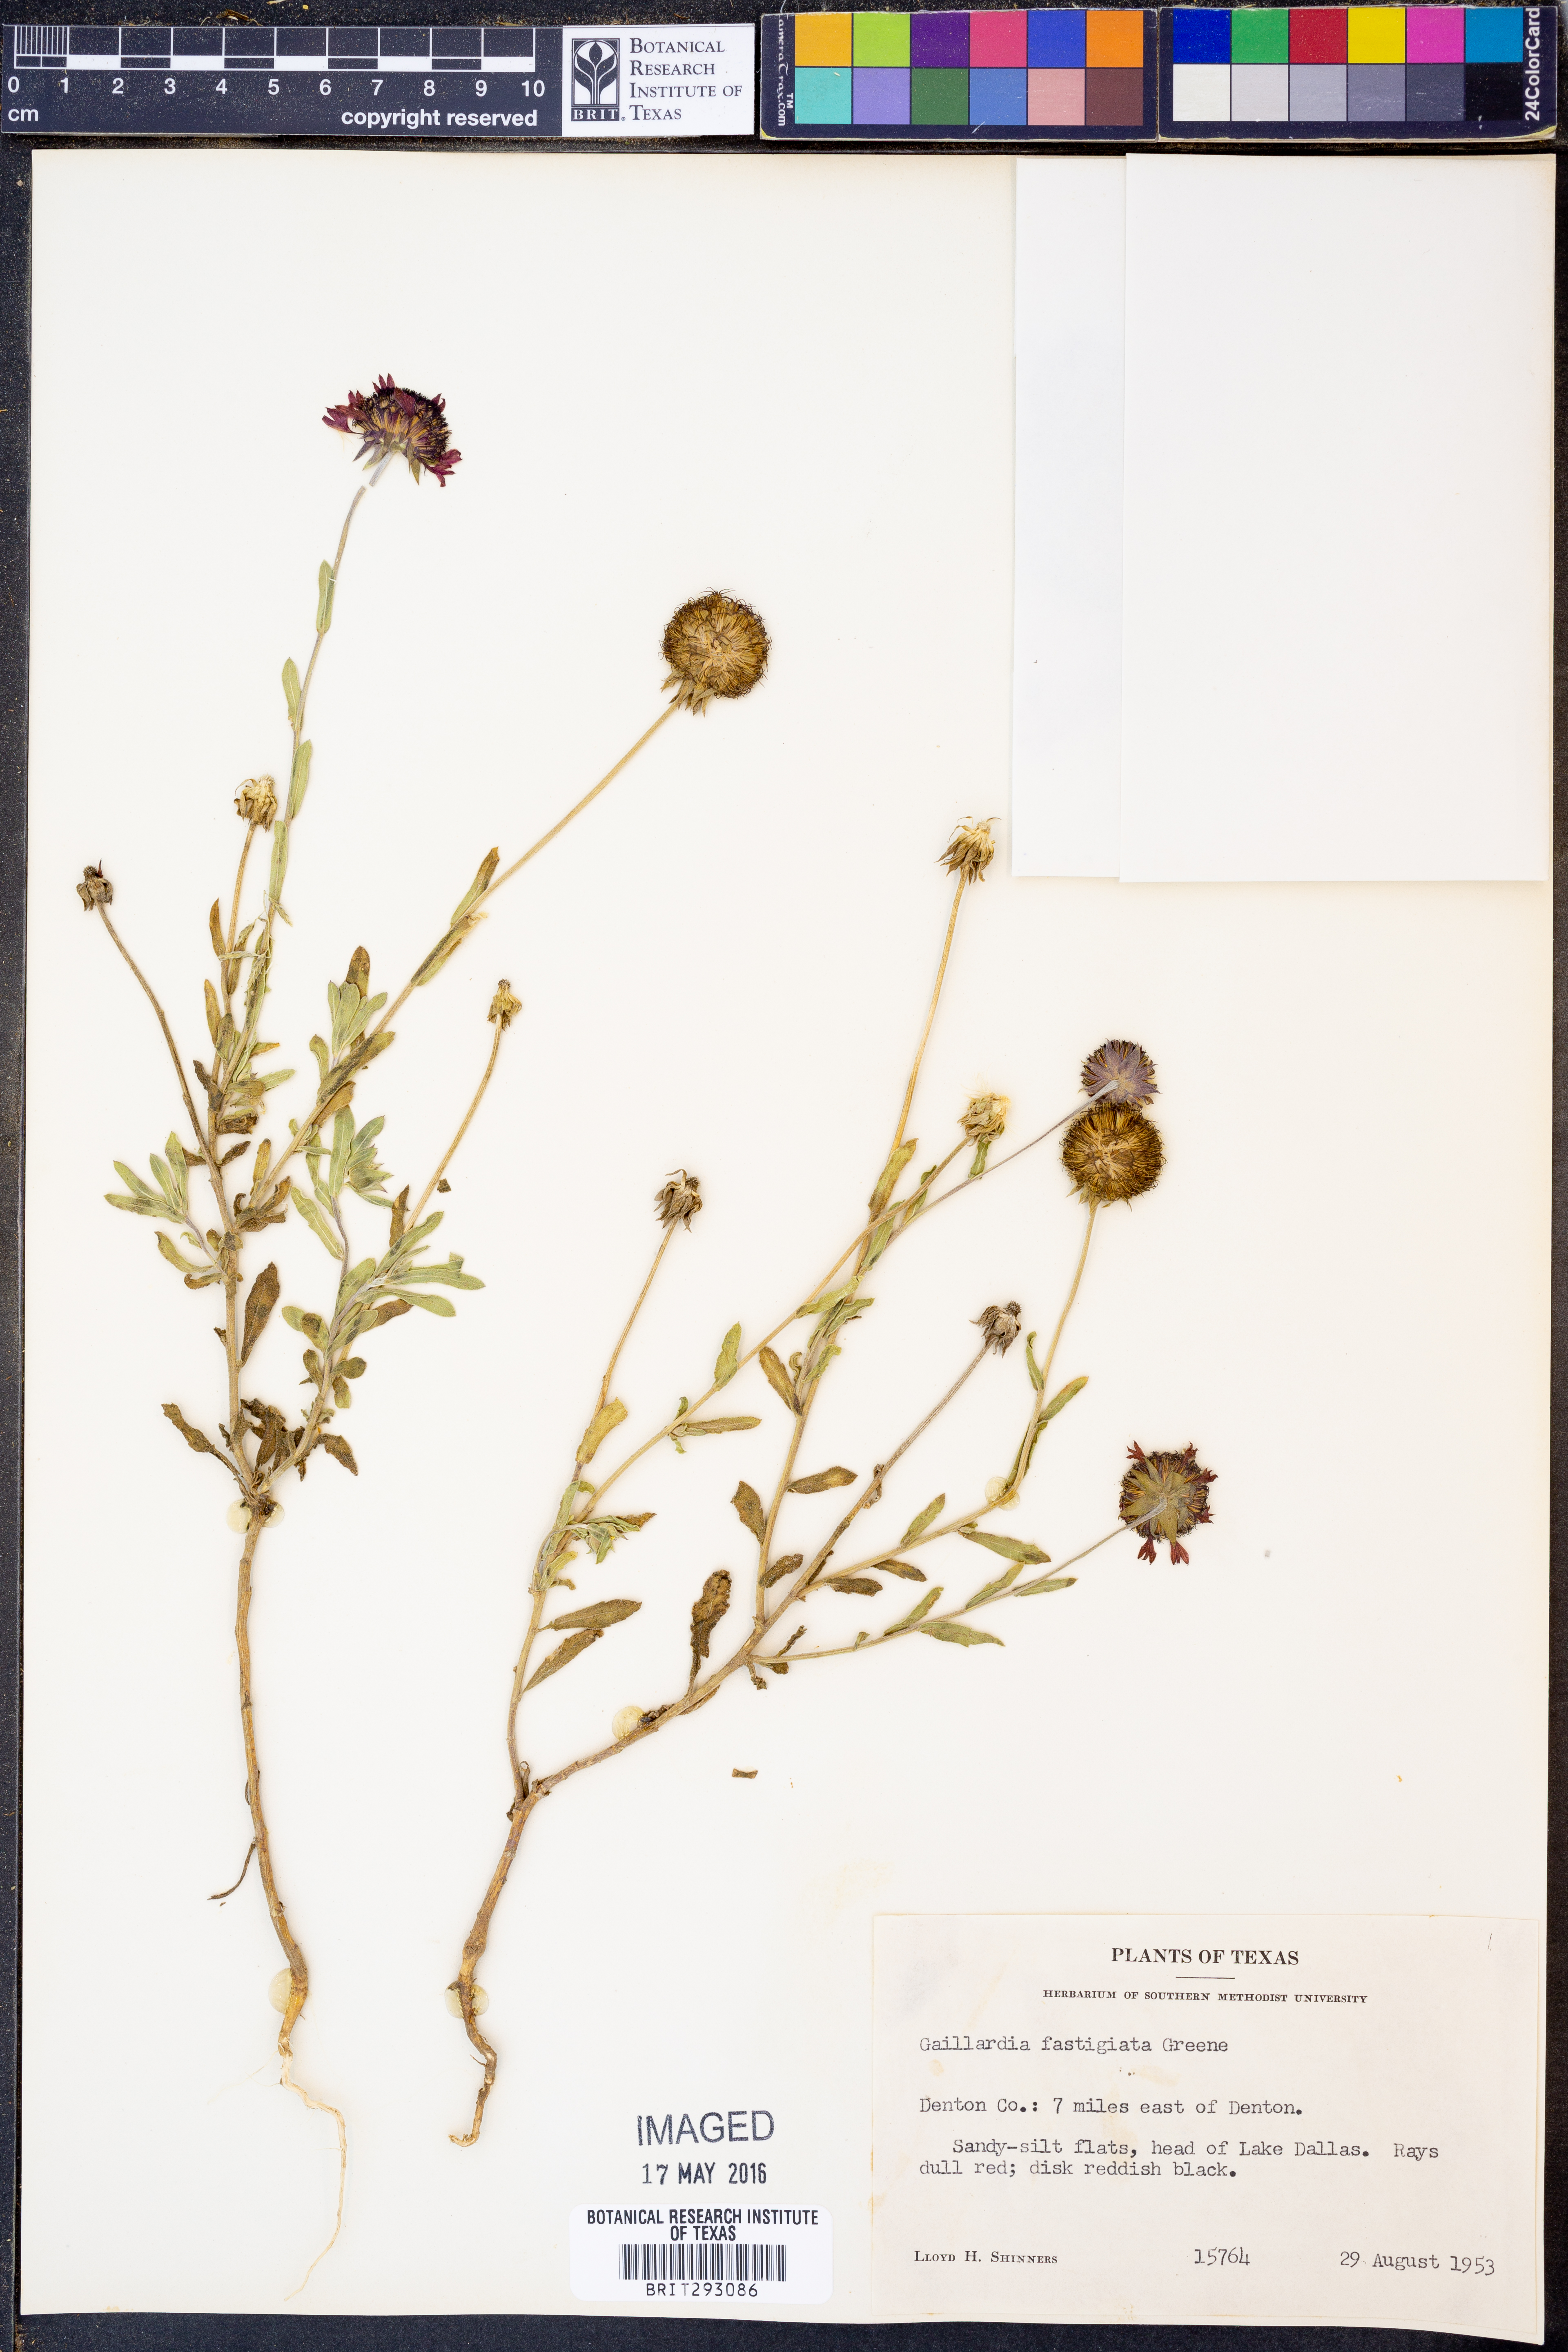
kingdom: Plantae
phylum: Tracheophyta
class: Magnoliopsida
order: Asterales
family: Asteraceae
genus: Gaillardia
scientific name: Gaillardia aestivalis
